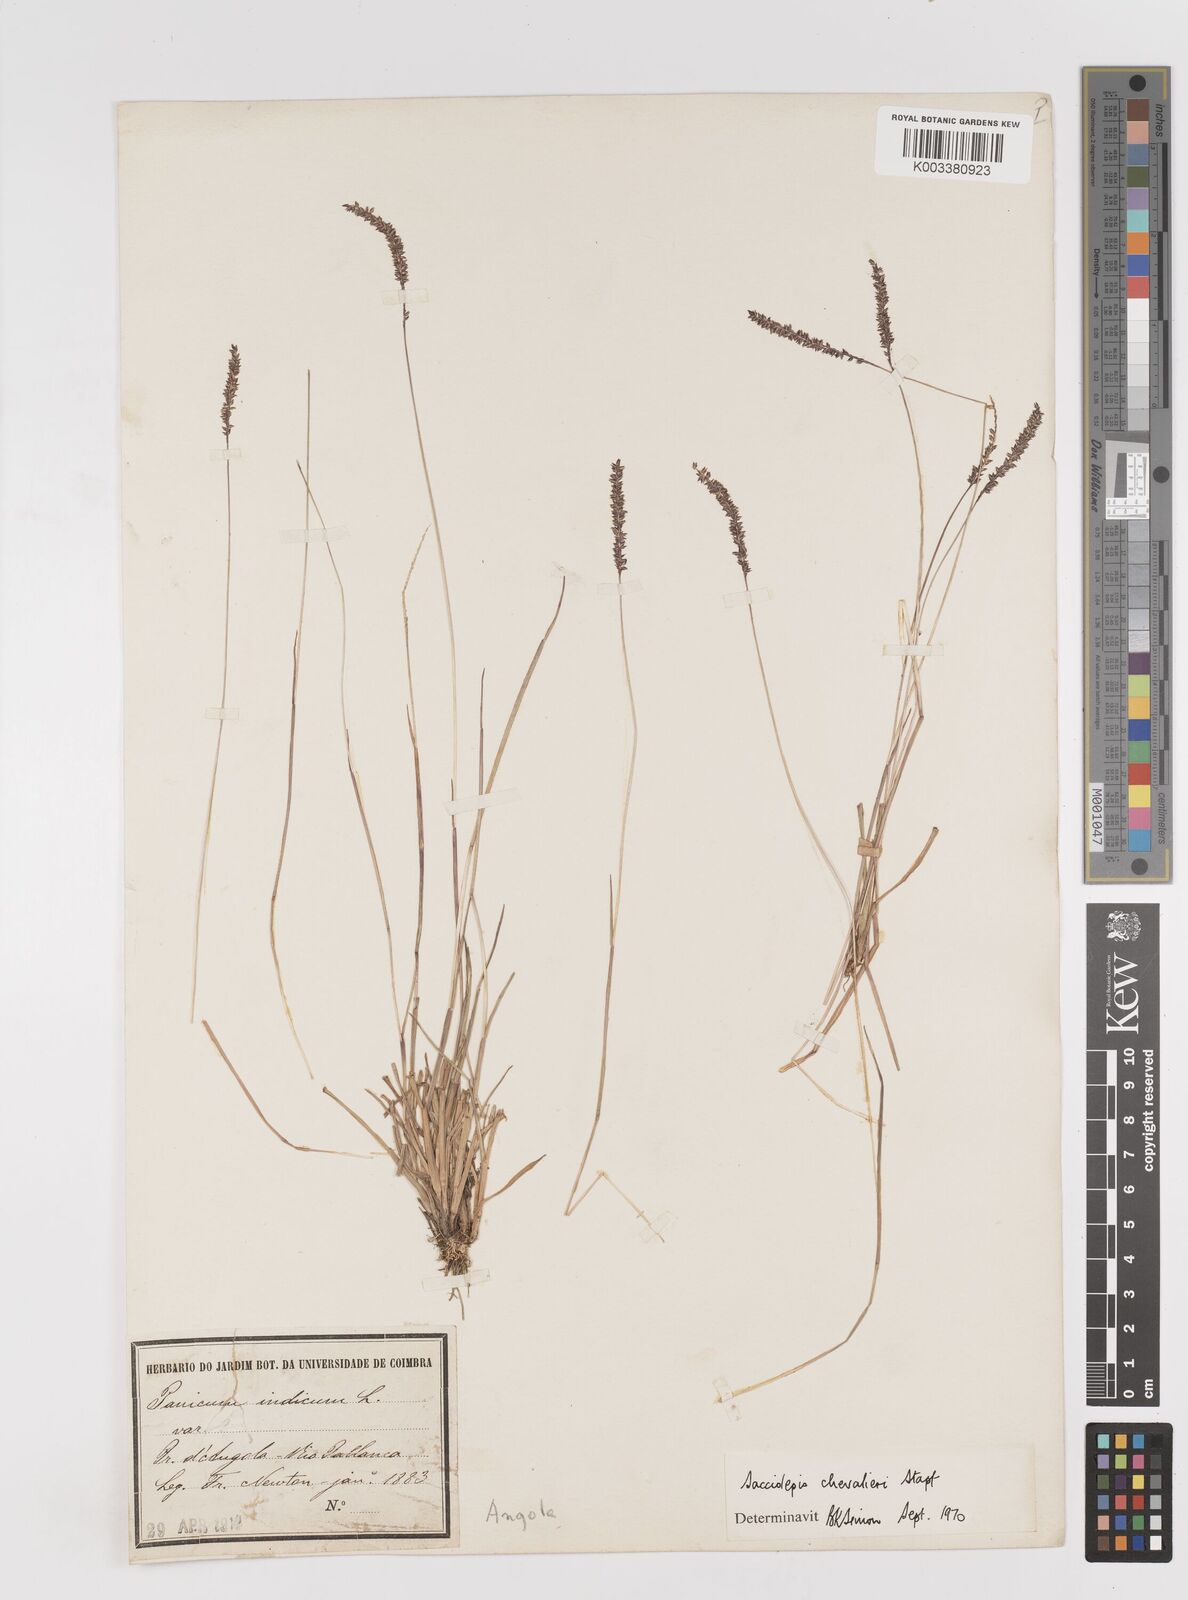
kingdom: Plantae
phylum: Tracheophyta
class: Liliopsida
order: Poales
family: Poaceae
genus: Sacciolepis
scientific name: Sacciolepis chevalieri
